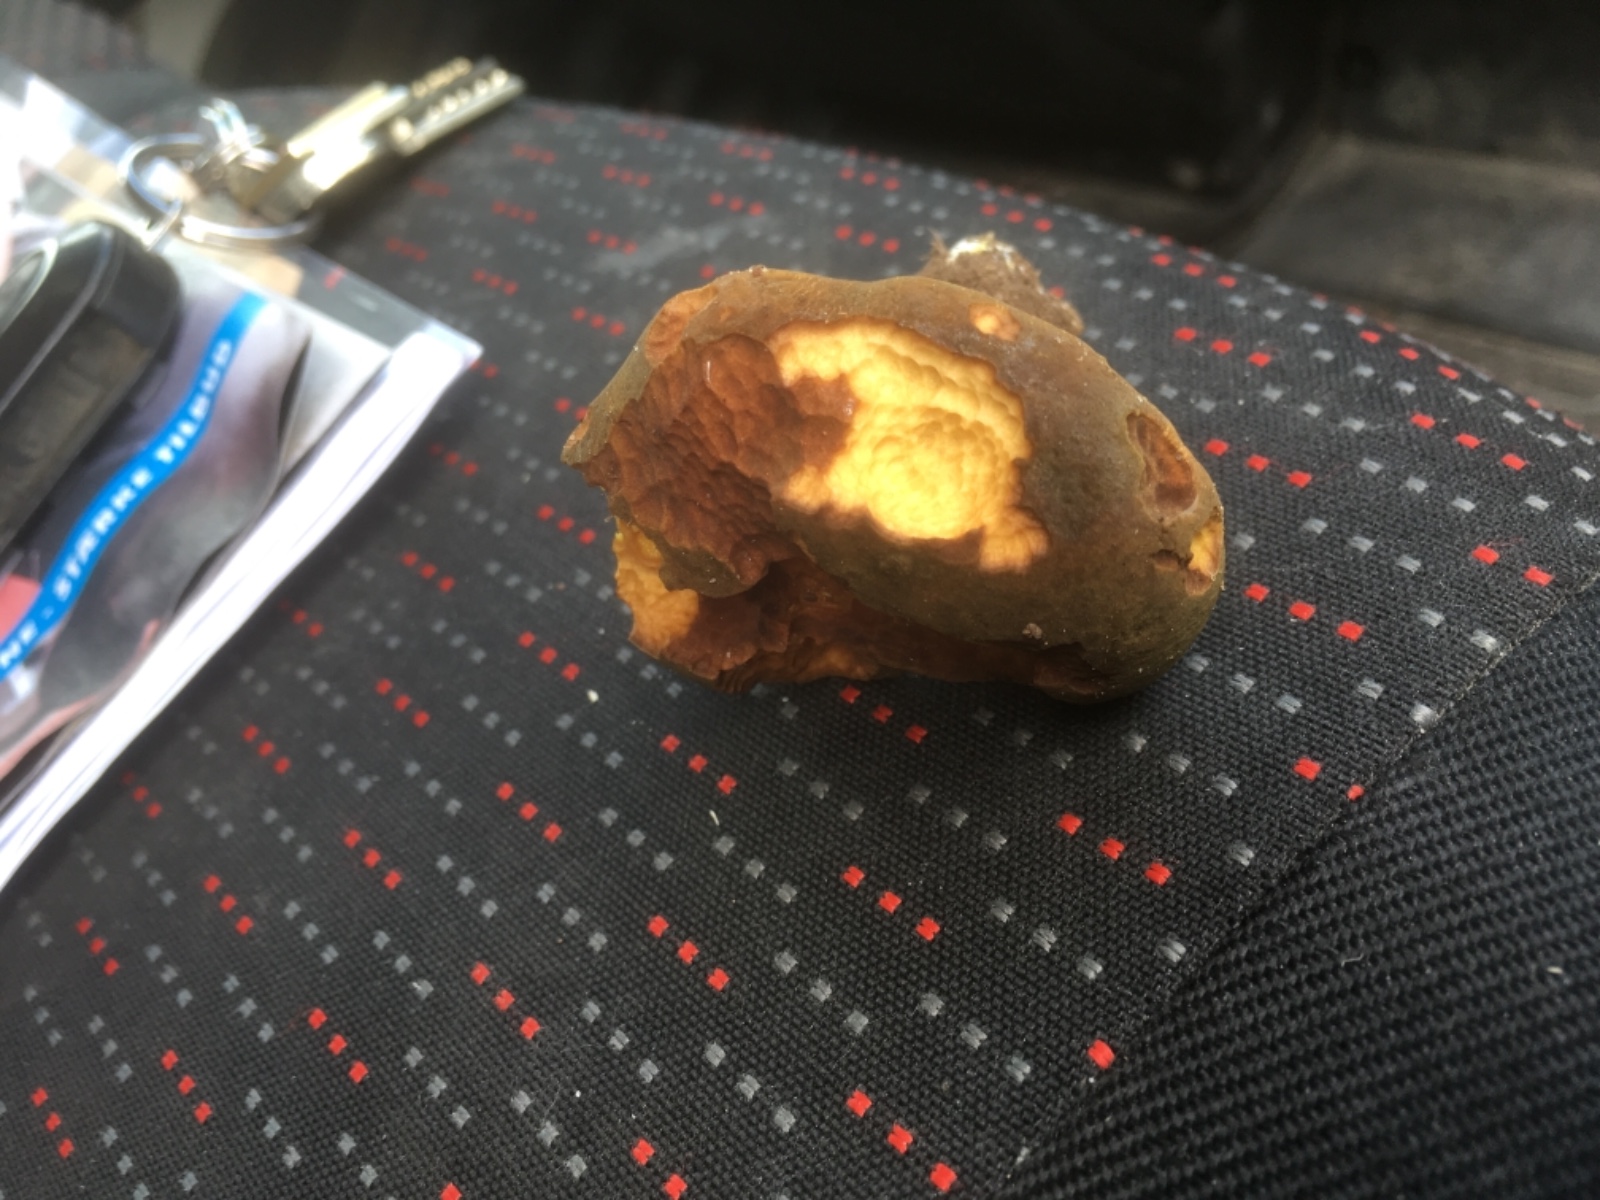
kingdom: Fungi
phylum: Basidiomycota
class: Agaricomycetes
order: Boletales
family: Boletaceae
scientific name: Boletaceae
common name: rørhatfamilien
